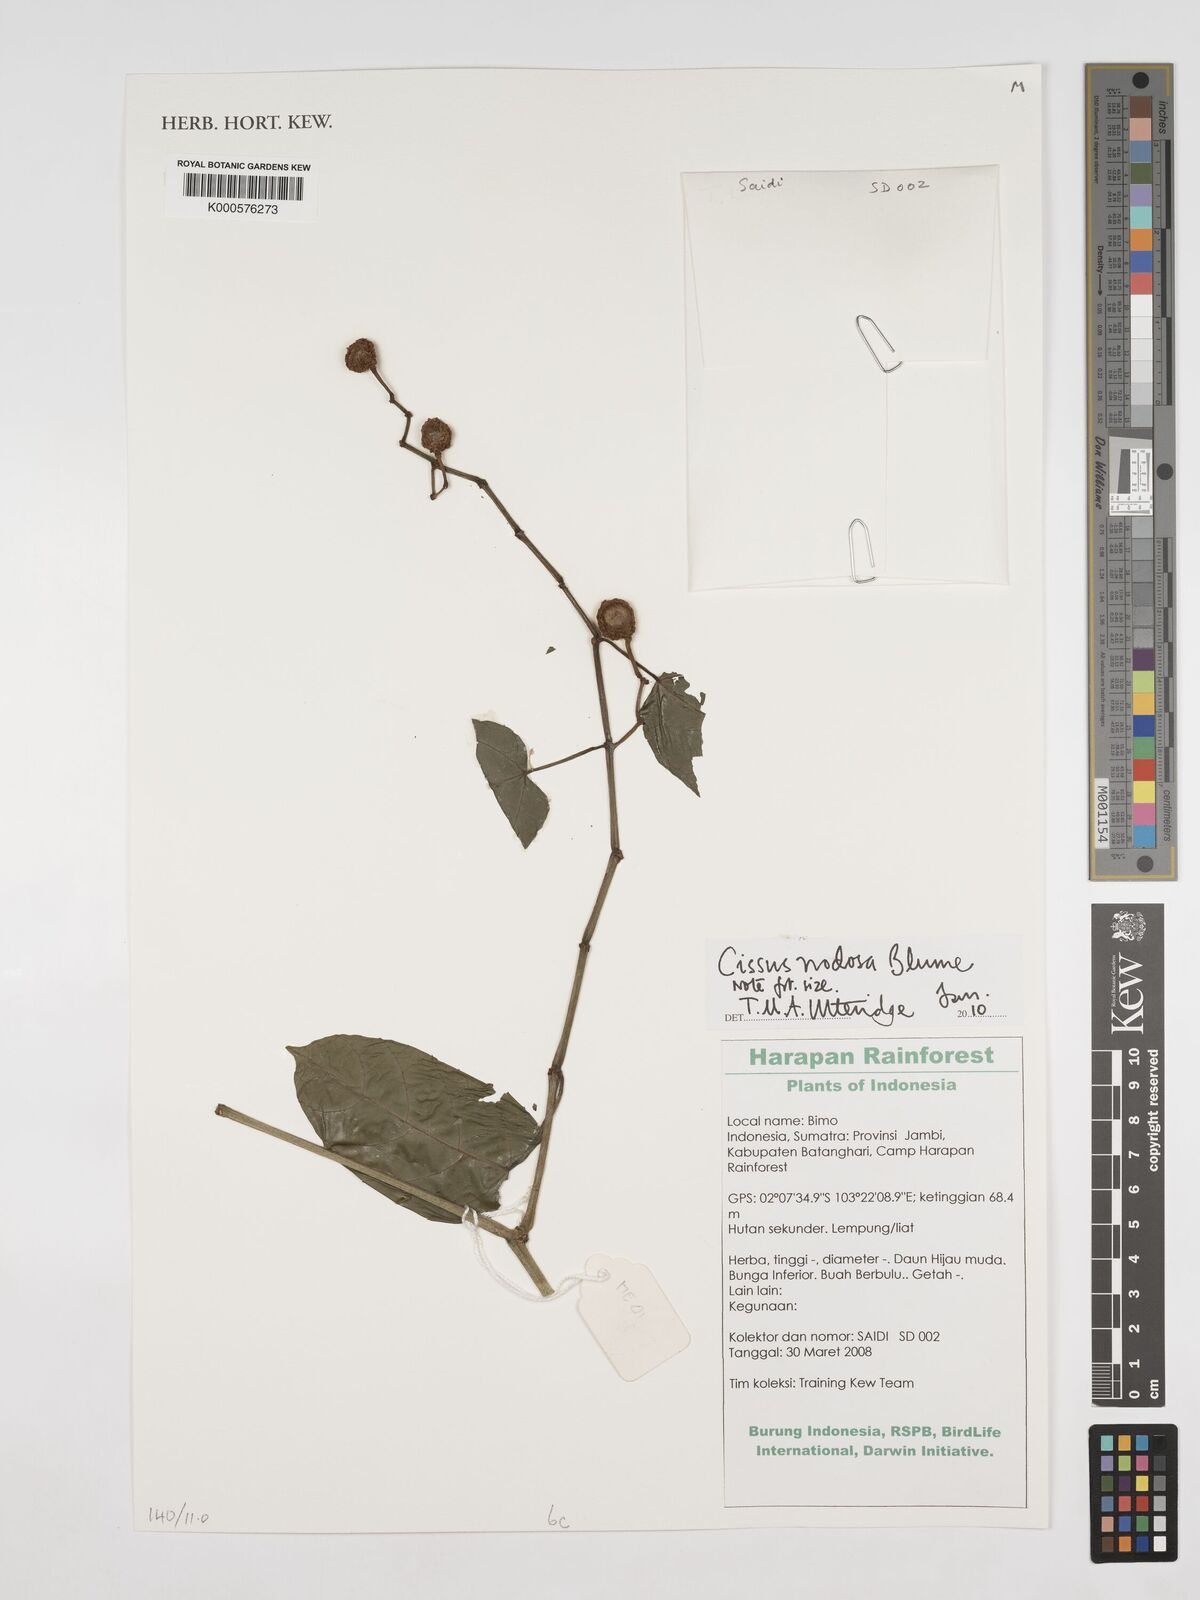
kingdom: Plantae
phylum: Tracheophyta
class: Magnoliopsida
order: Vitales
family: Vitaceae
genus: Cissus
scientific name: Cissus nodosa
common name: Grape ivy
